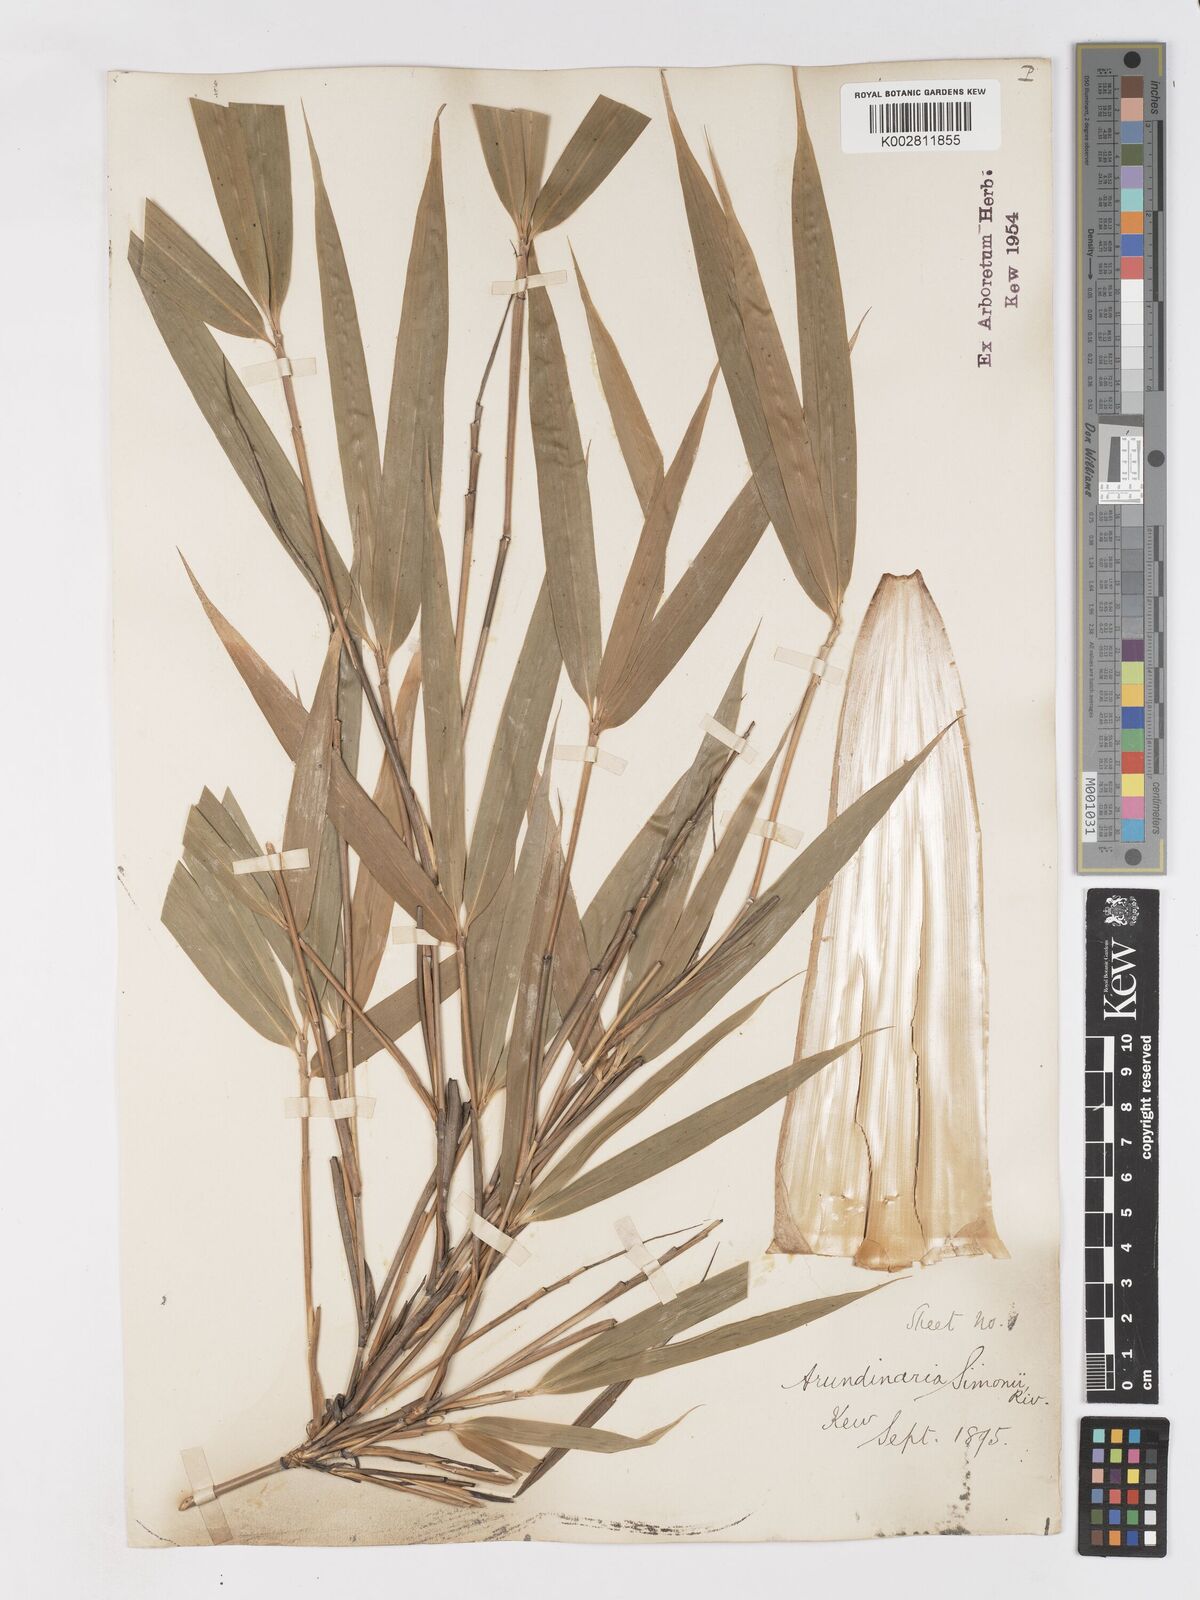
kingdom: Plantae
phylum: Tracheophyta
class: Liliopsida
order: Poales
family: Poaceae
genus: Pleioblastus
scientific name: Pleioblastus simonii
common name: Simon bamboo
